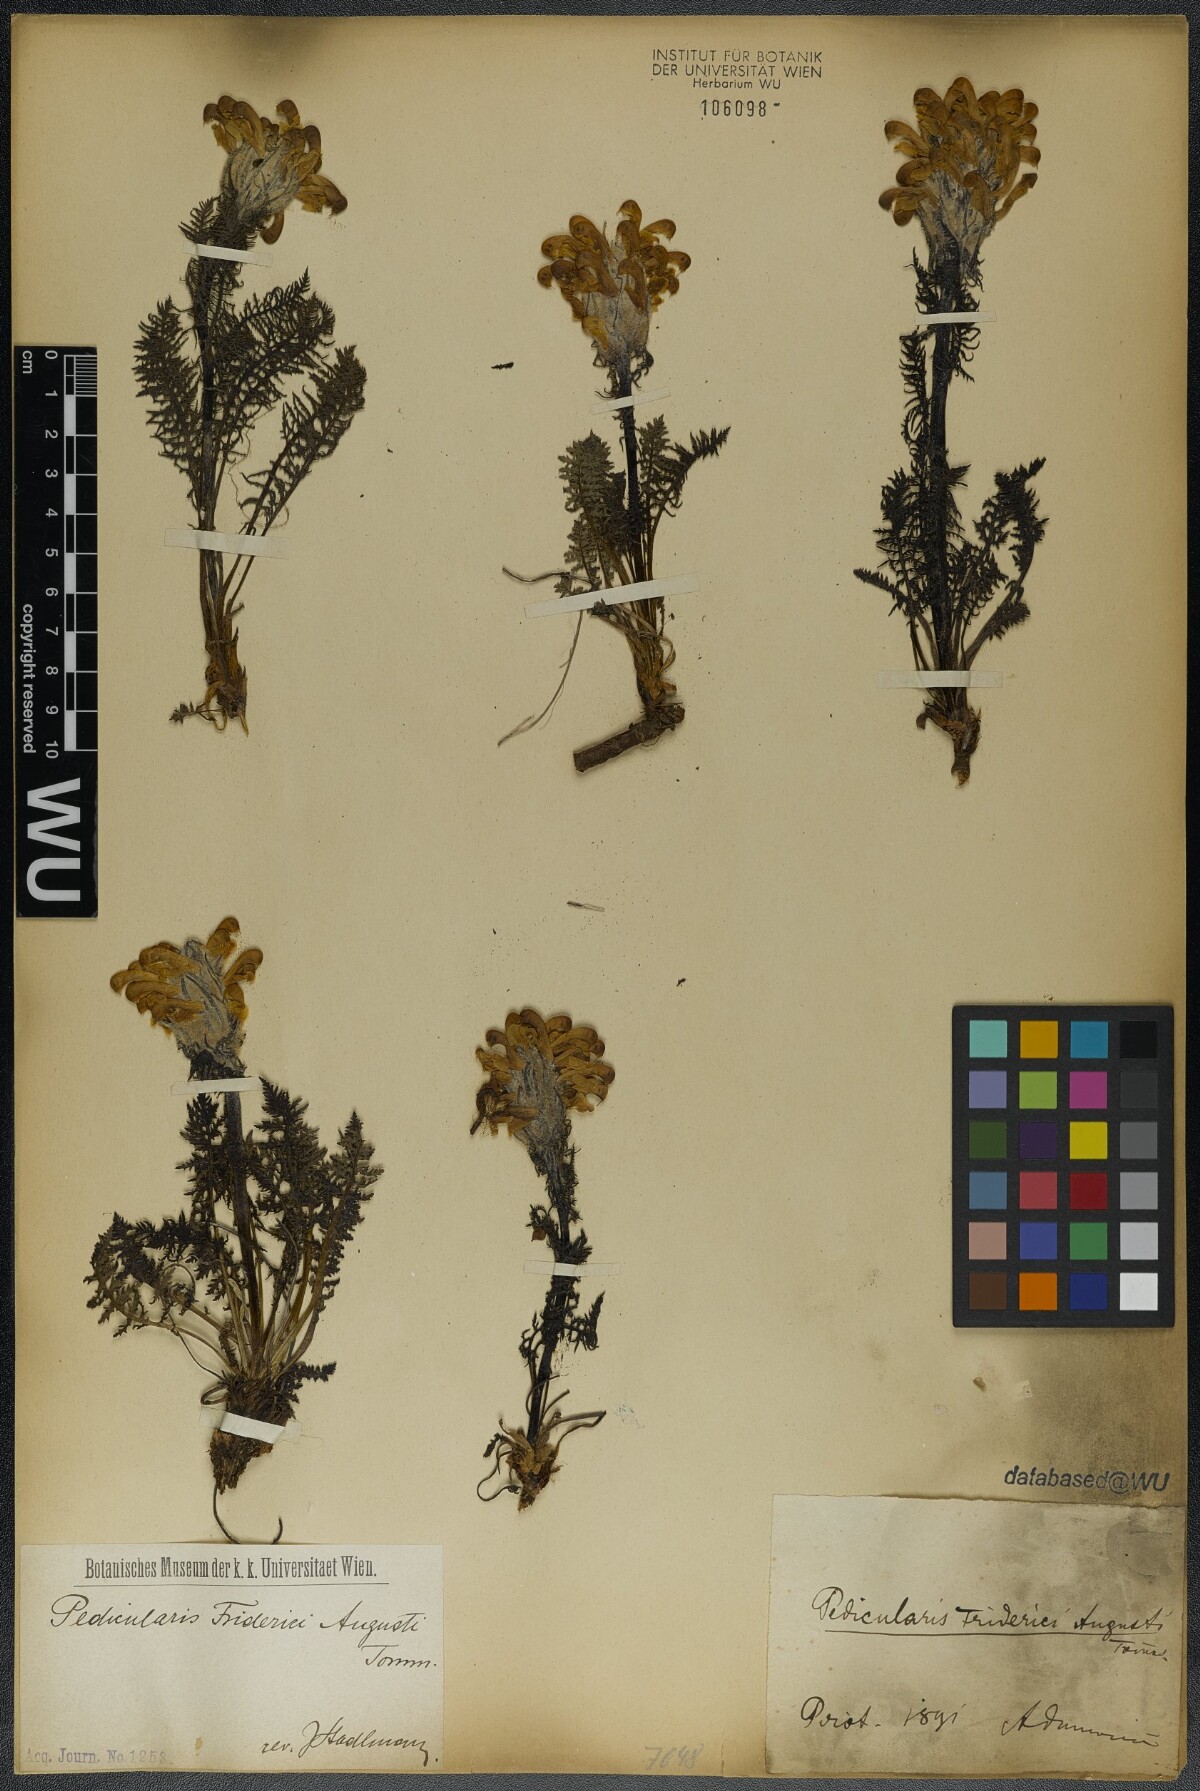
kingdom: Plantae
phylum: Tracheophyta
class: Magnoliopsida
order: Lamiales
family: Orobanchaceae
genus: Pedicularis
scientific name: Pedicularis friderici-augusti
